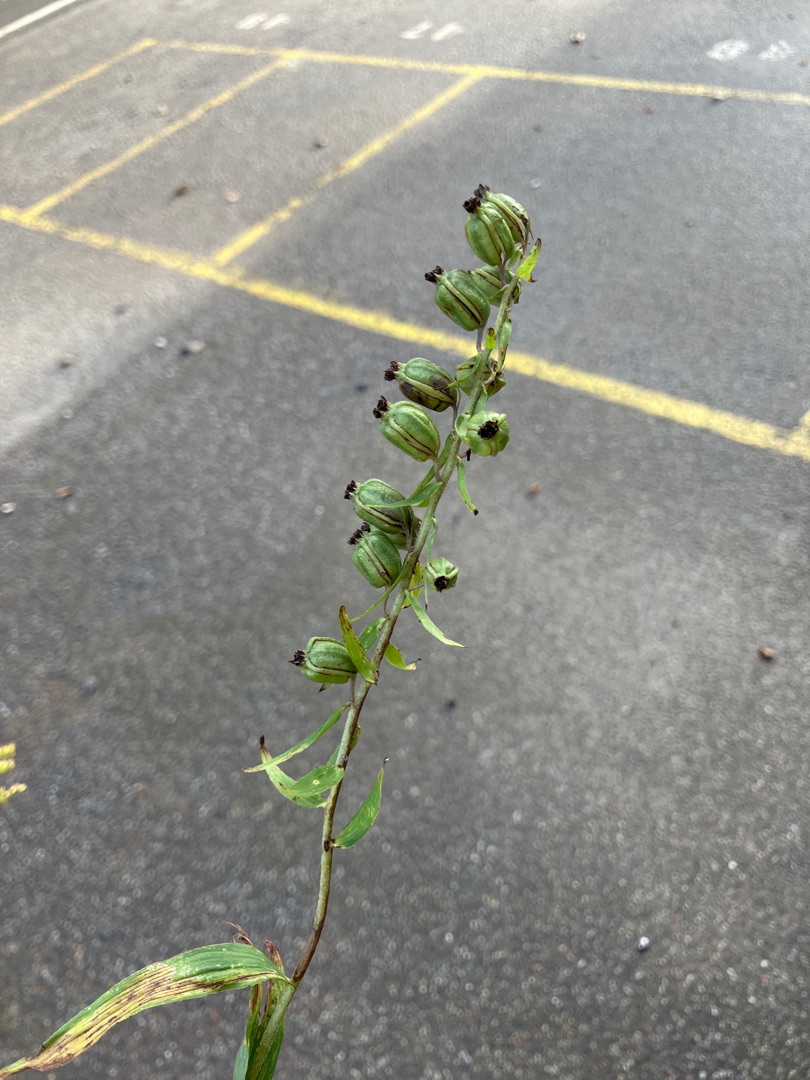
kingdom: Plantae
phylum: Tracheophyta
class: Liliopsida
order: Asparagales
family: Orchidaceae
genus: Epipactis
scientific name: Epipactis helleborine
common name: Skov-hullæbe
